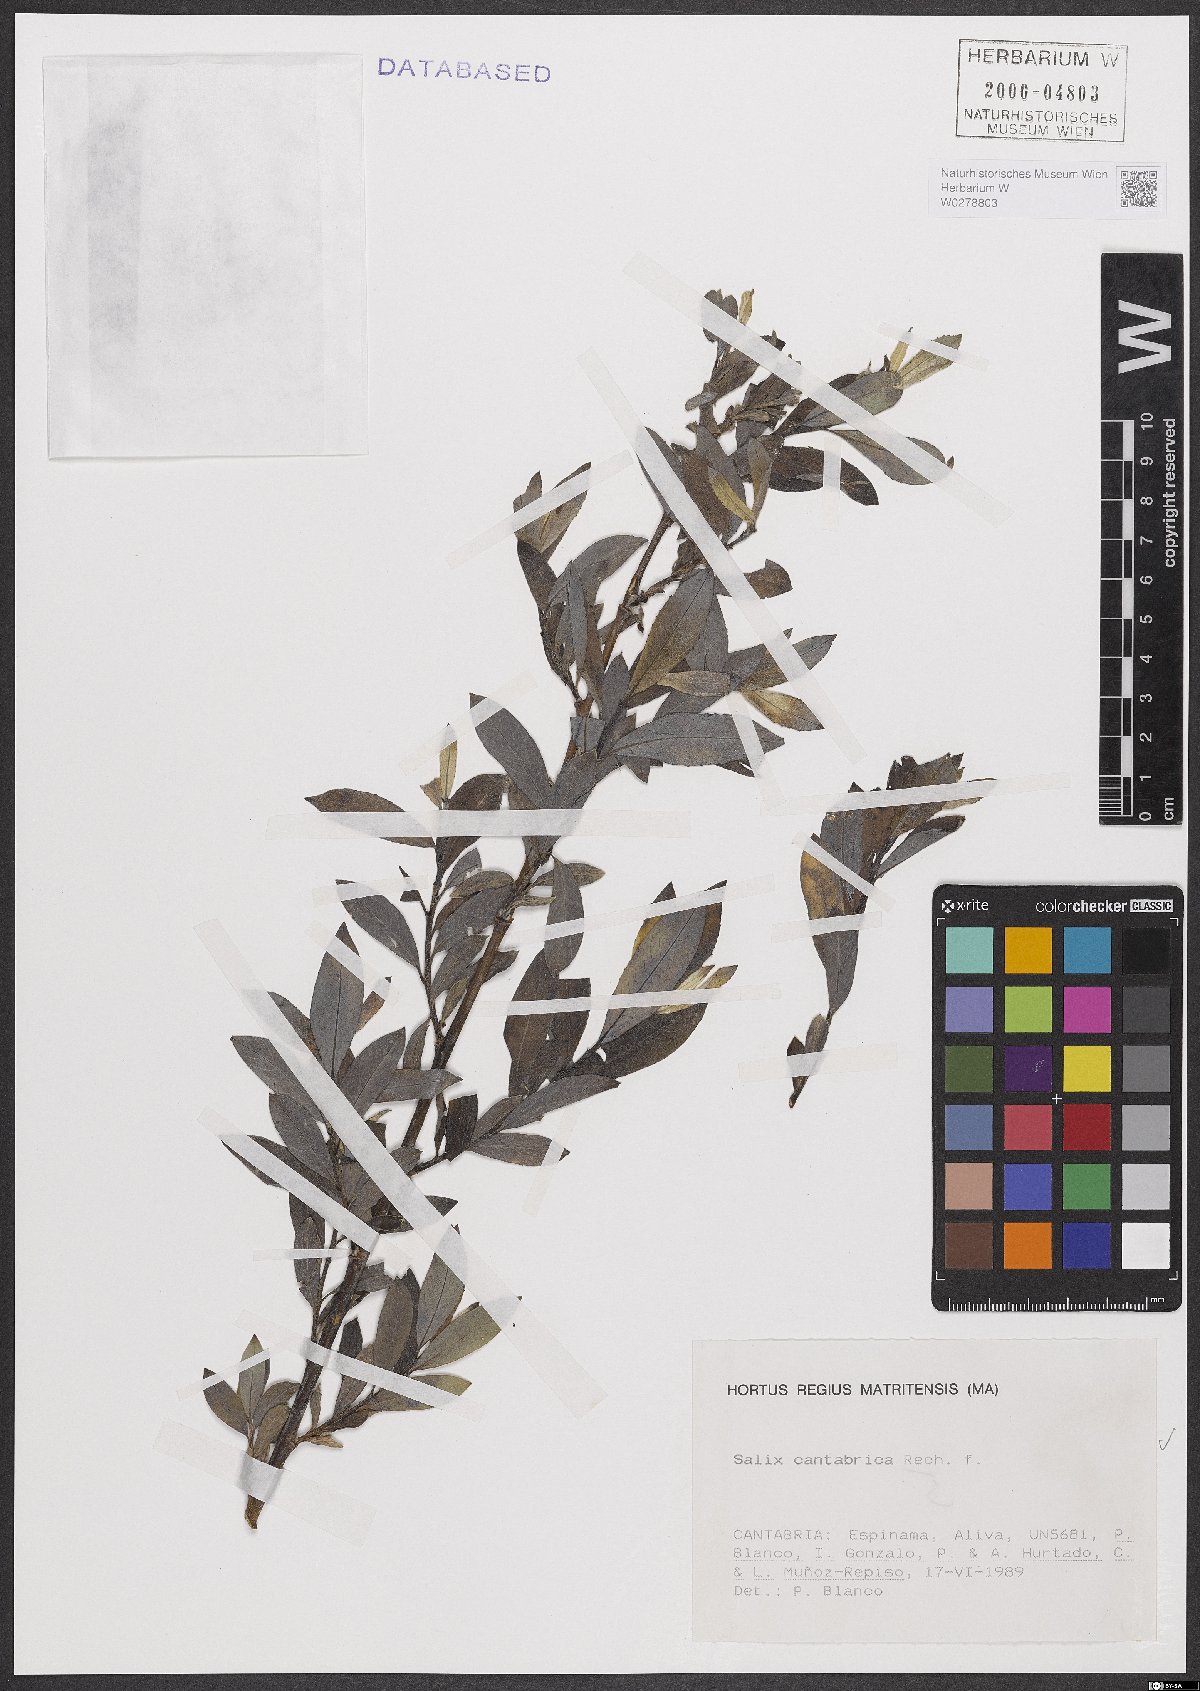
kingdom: Plantae
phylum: Tracheophyta
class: Magnoliopsida
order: Malpighiales
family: Salicaceae
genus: Salix
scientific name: Salix cantabrica
